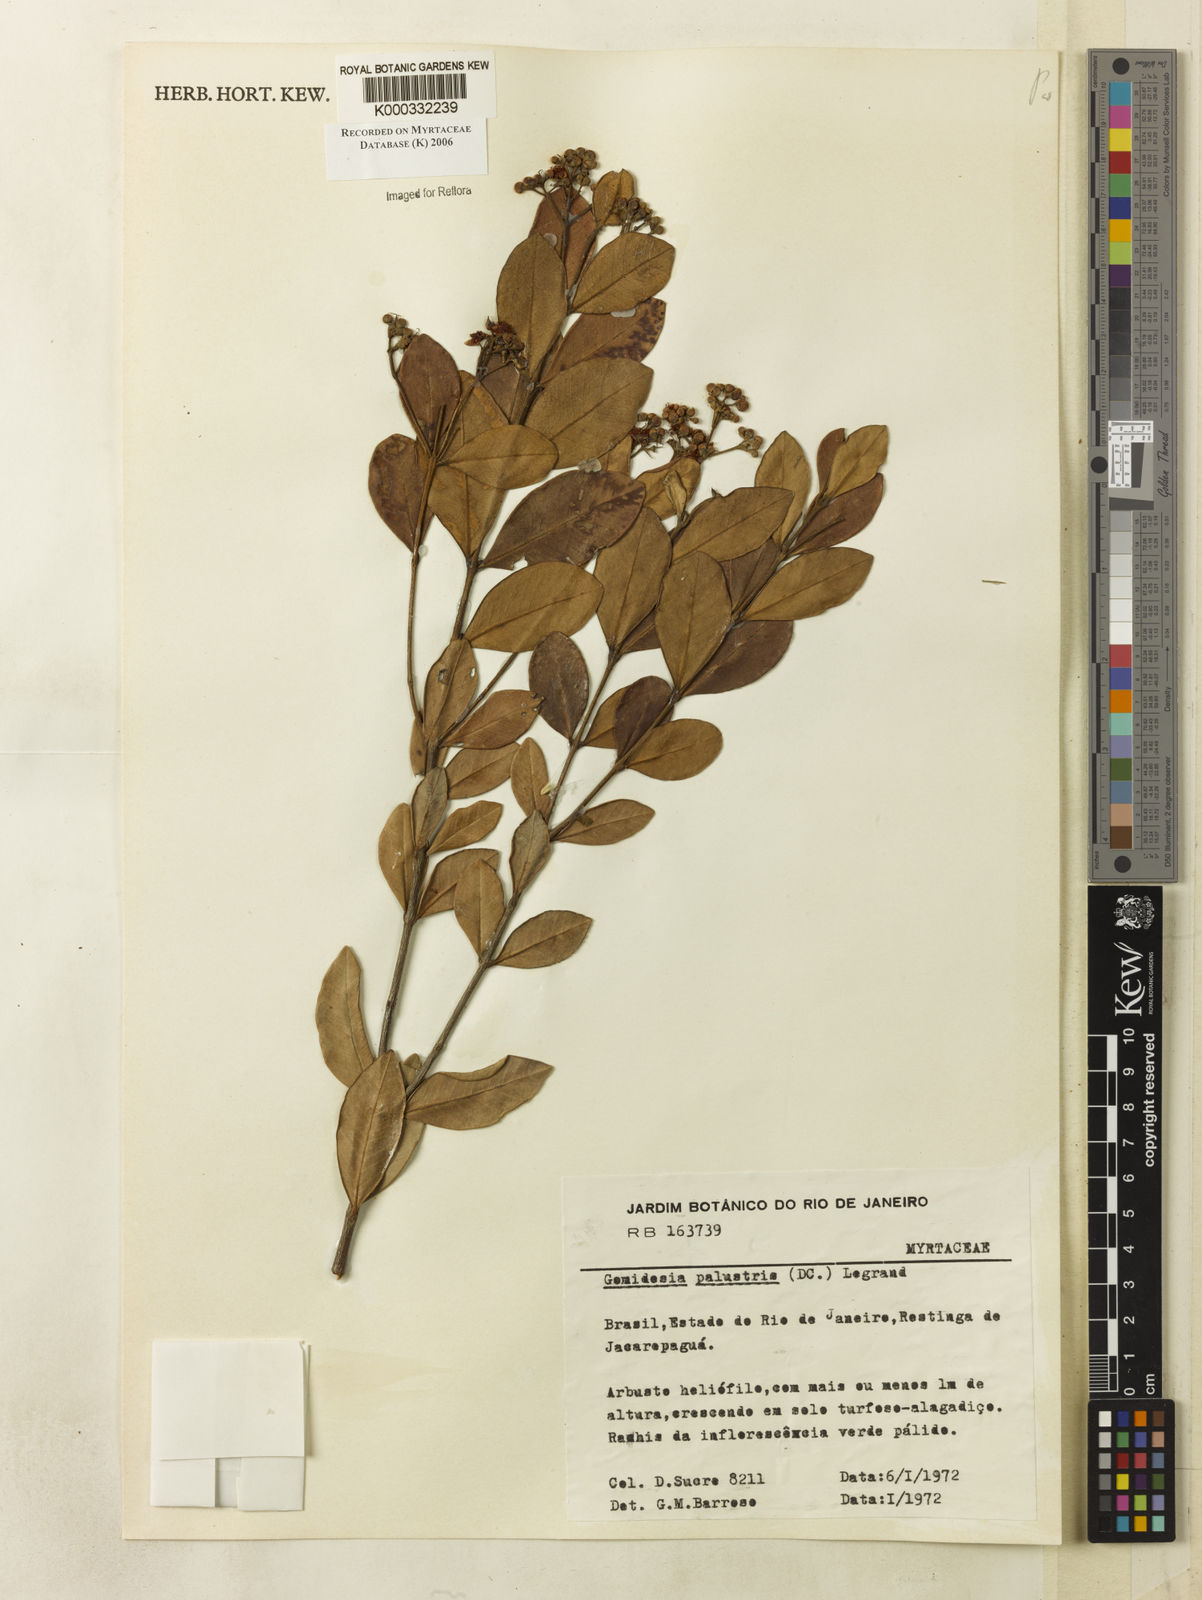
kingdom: Plantae
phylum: Tracheophyta
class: Magnoliopsida
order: Myrtales
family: Myrtaceae
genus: Myrcia
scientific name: Myrcia palustris
